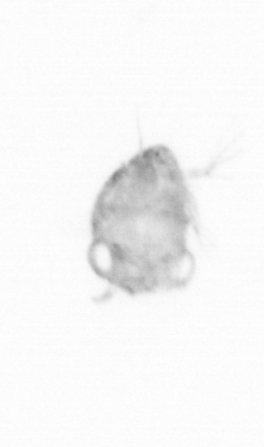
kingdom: Chromista
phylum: Ochrophyta
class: Bacillariophyceae
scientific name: Bacillariophyceae
